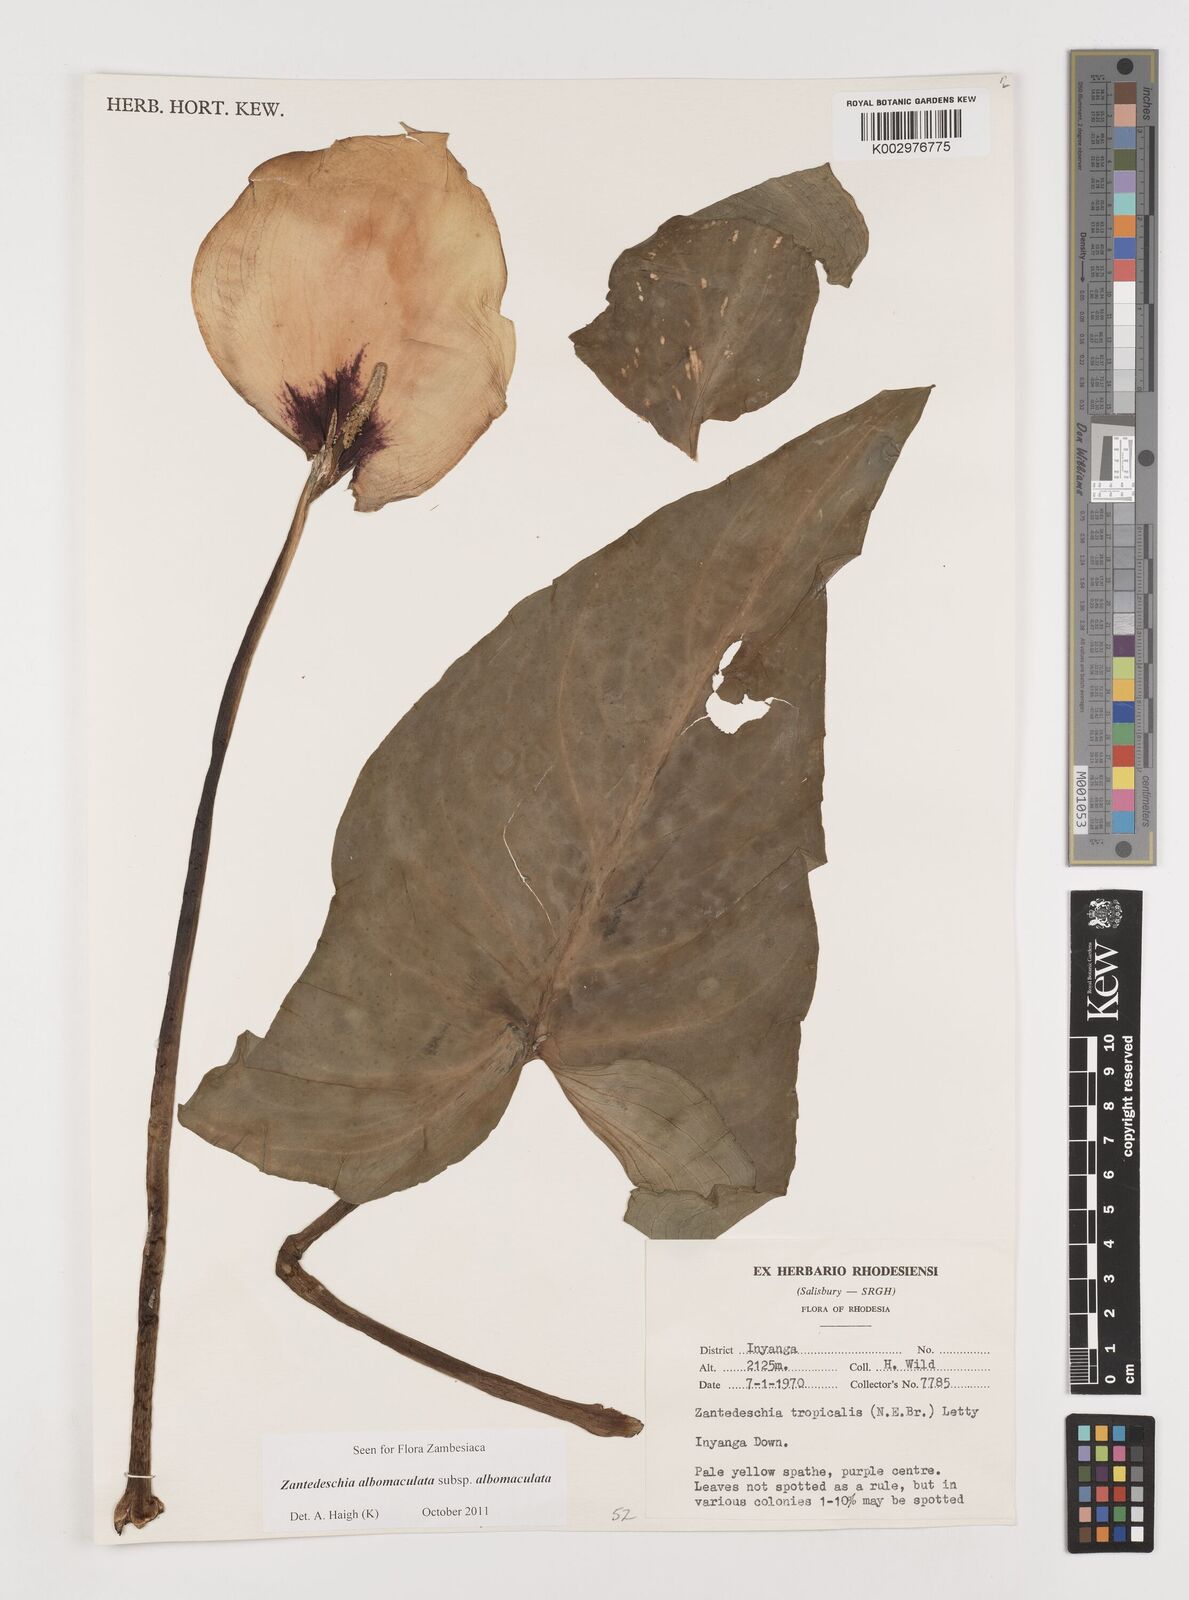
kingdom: Plantae
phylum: Tracheophyta
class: Liliopsida
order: Alismatales
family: Araceae
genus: Zantedeschia
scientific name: Zantedeschia albomaculata
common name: Spotted calla lily
